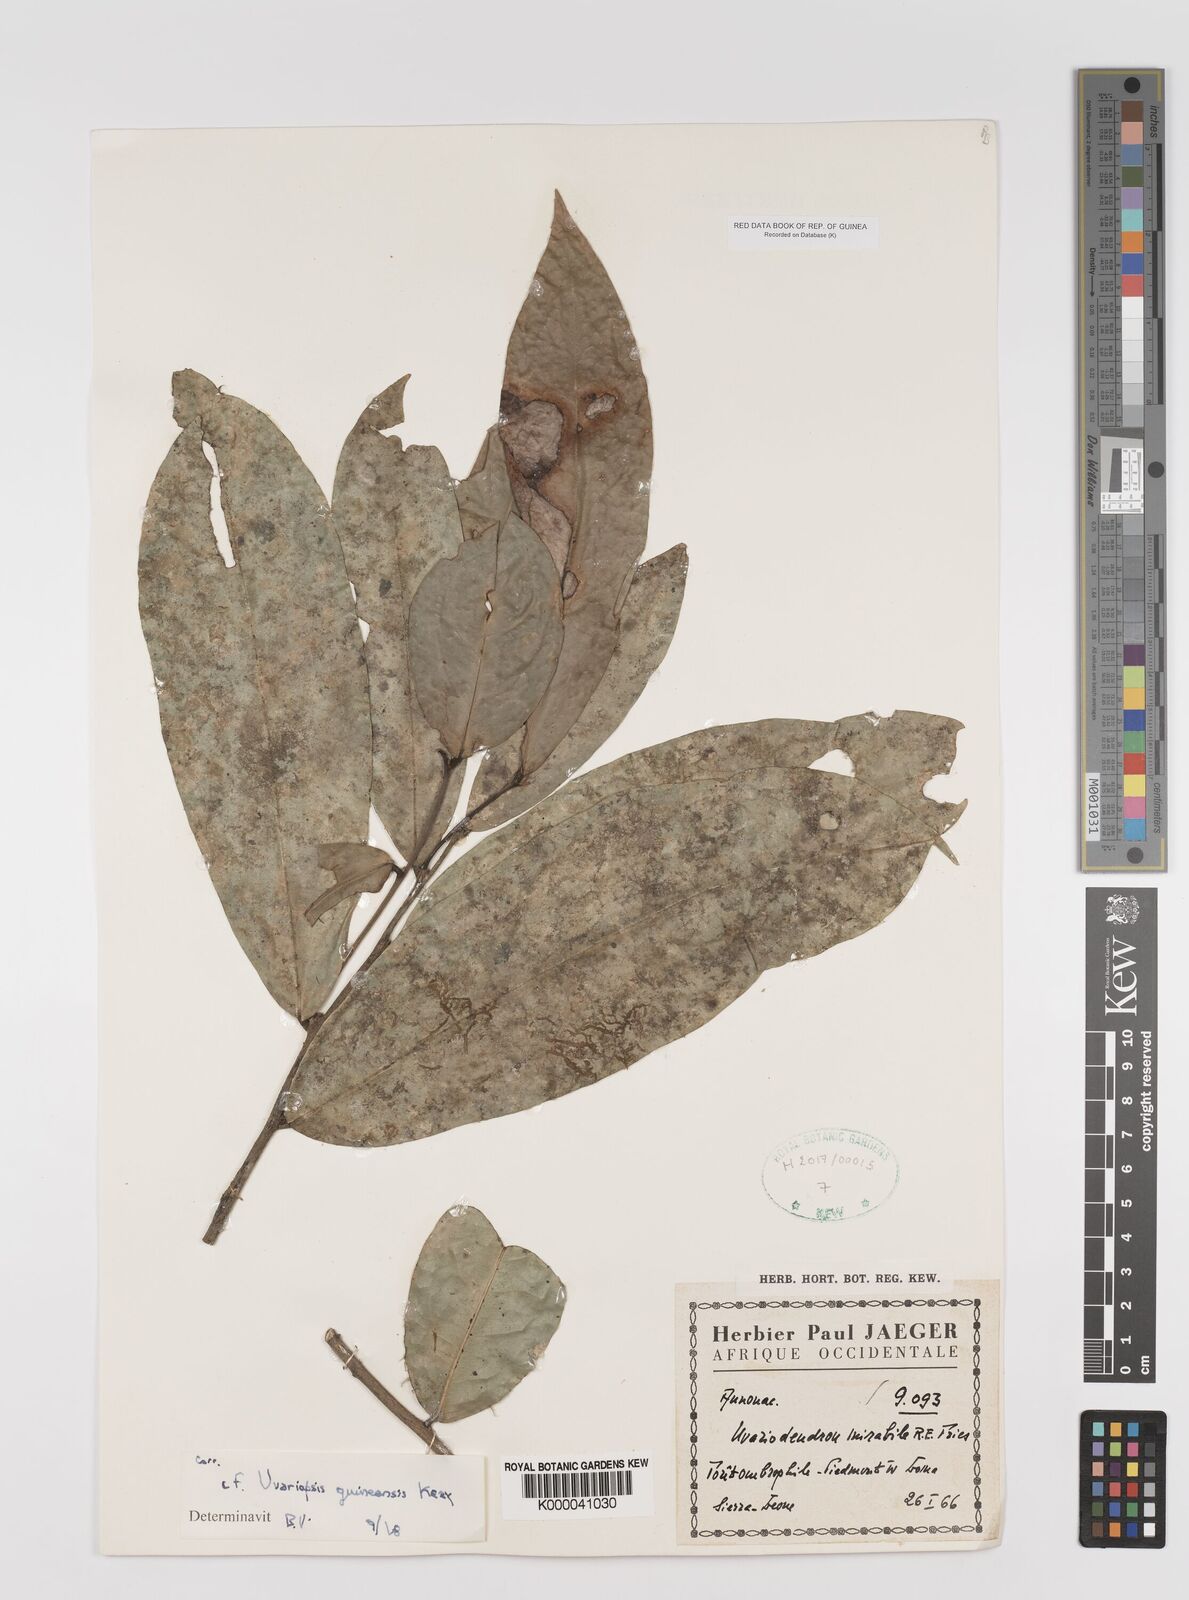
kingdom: Plantae
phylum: Tracheophyta
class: Magnoliopsida
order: Magnoliales
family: Annonaceae
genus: Uvariopsis
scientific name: Uvariopsis
